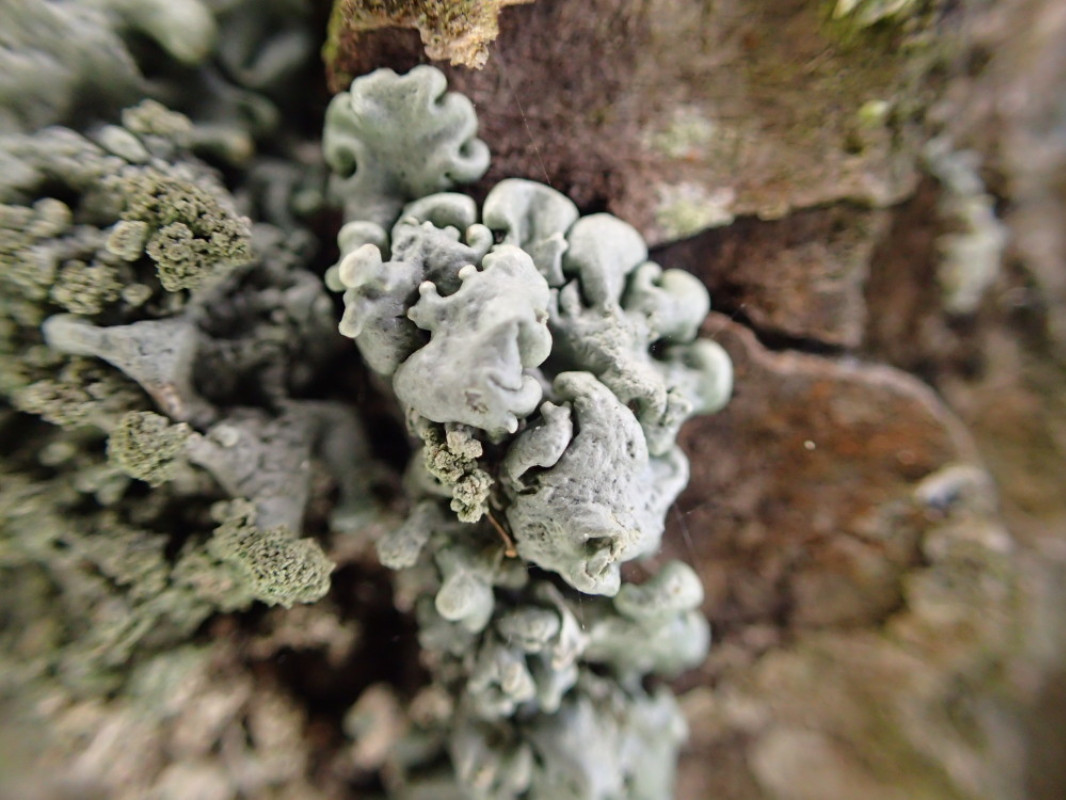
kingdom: Fungi
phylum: Ascomycota
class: Lecanoromycetes
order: Lecanorales
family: Parmeliaceae
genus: Hypogymnia
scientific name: Hypogymnia physodes
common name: almindelig kvistlav
